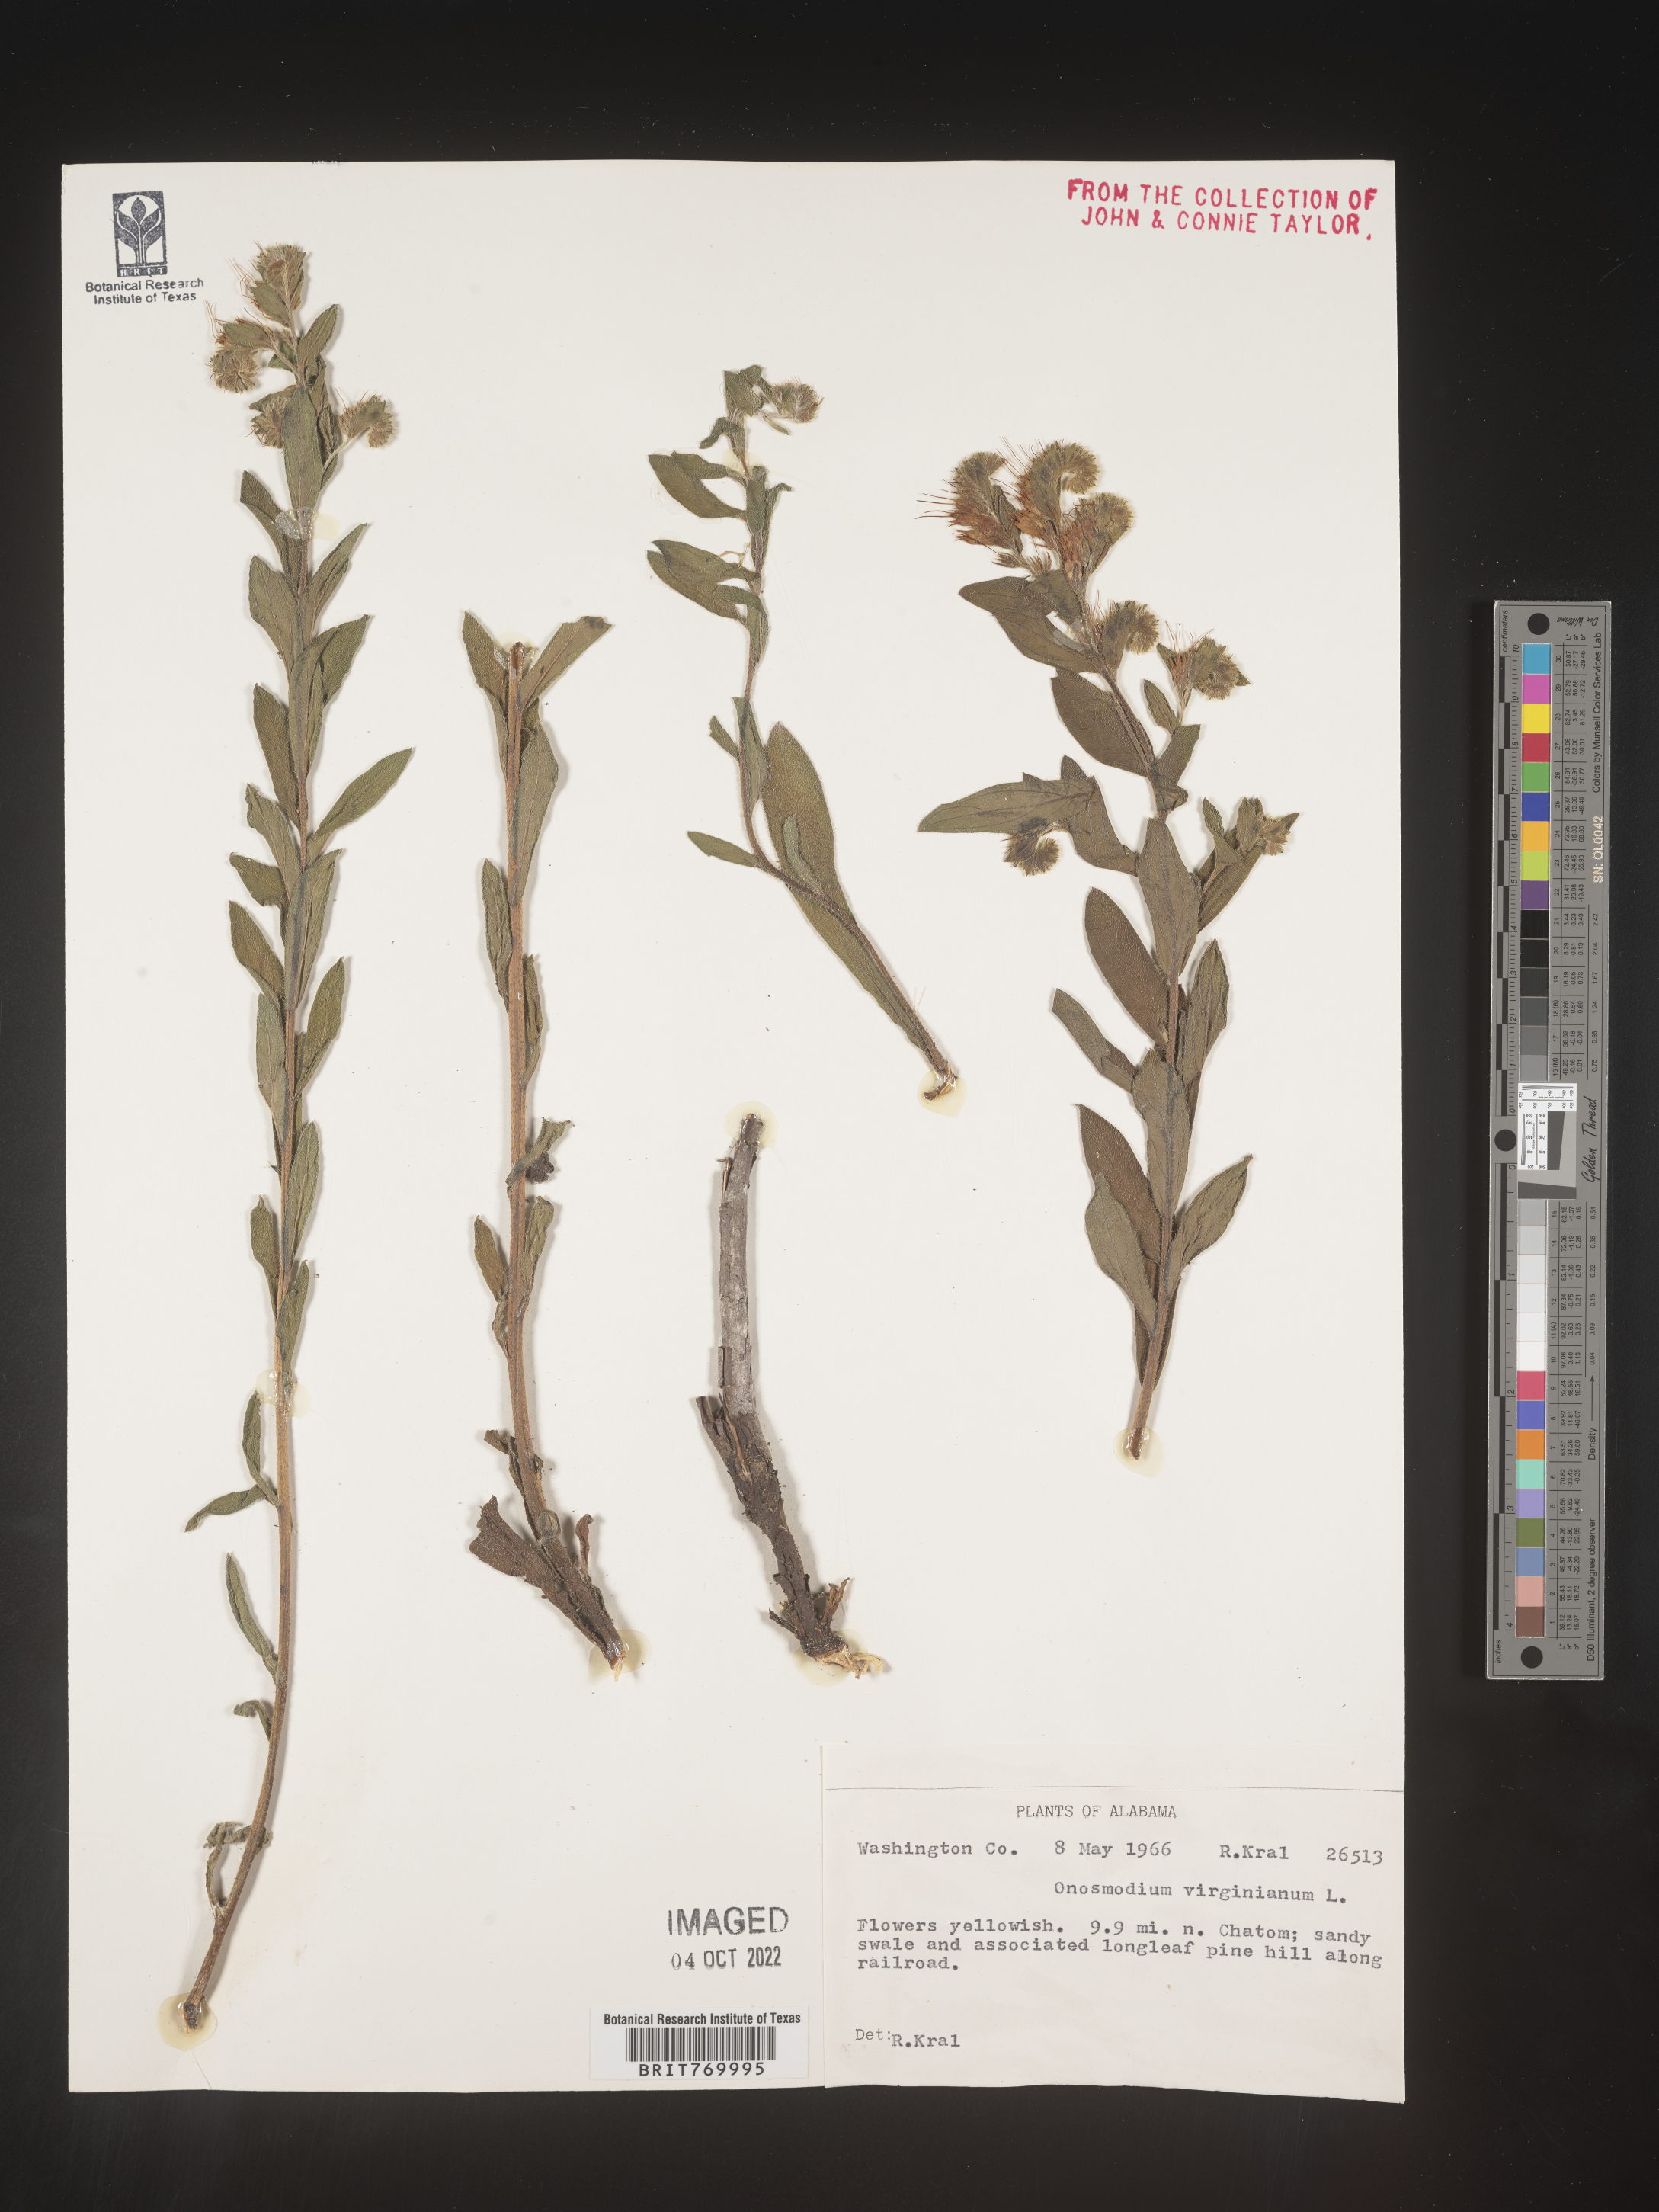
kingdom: Plantae
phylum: Tracheophyta
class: Magnoliopsida
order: Boraginales
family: Boraginaceae
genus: Lithospermum
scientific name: Lithospermum virginianum
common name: Eastern false gromwell
